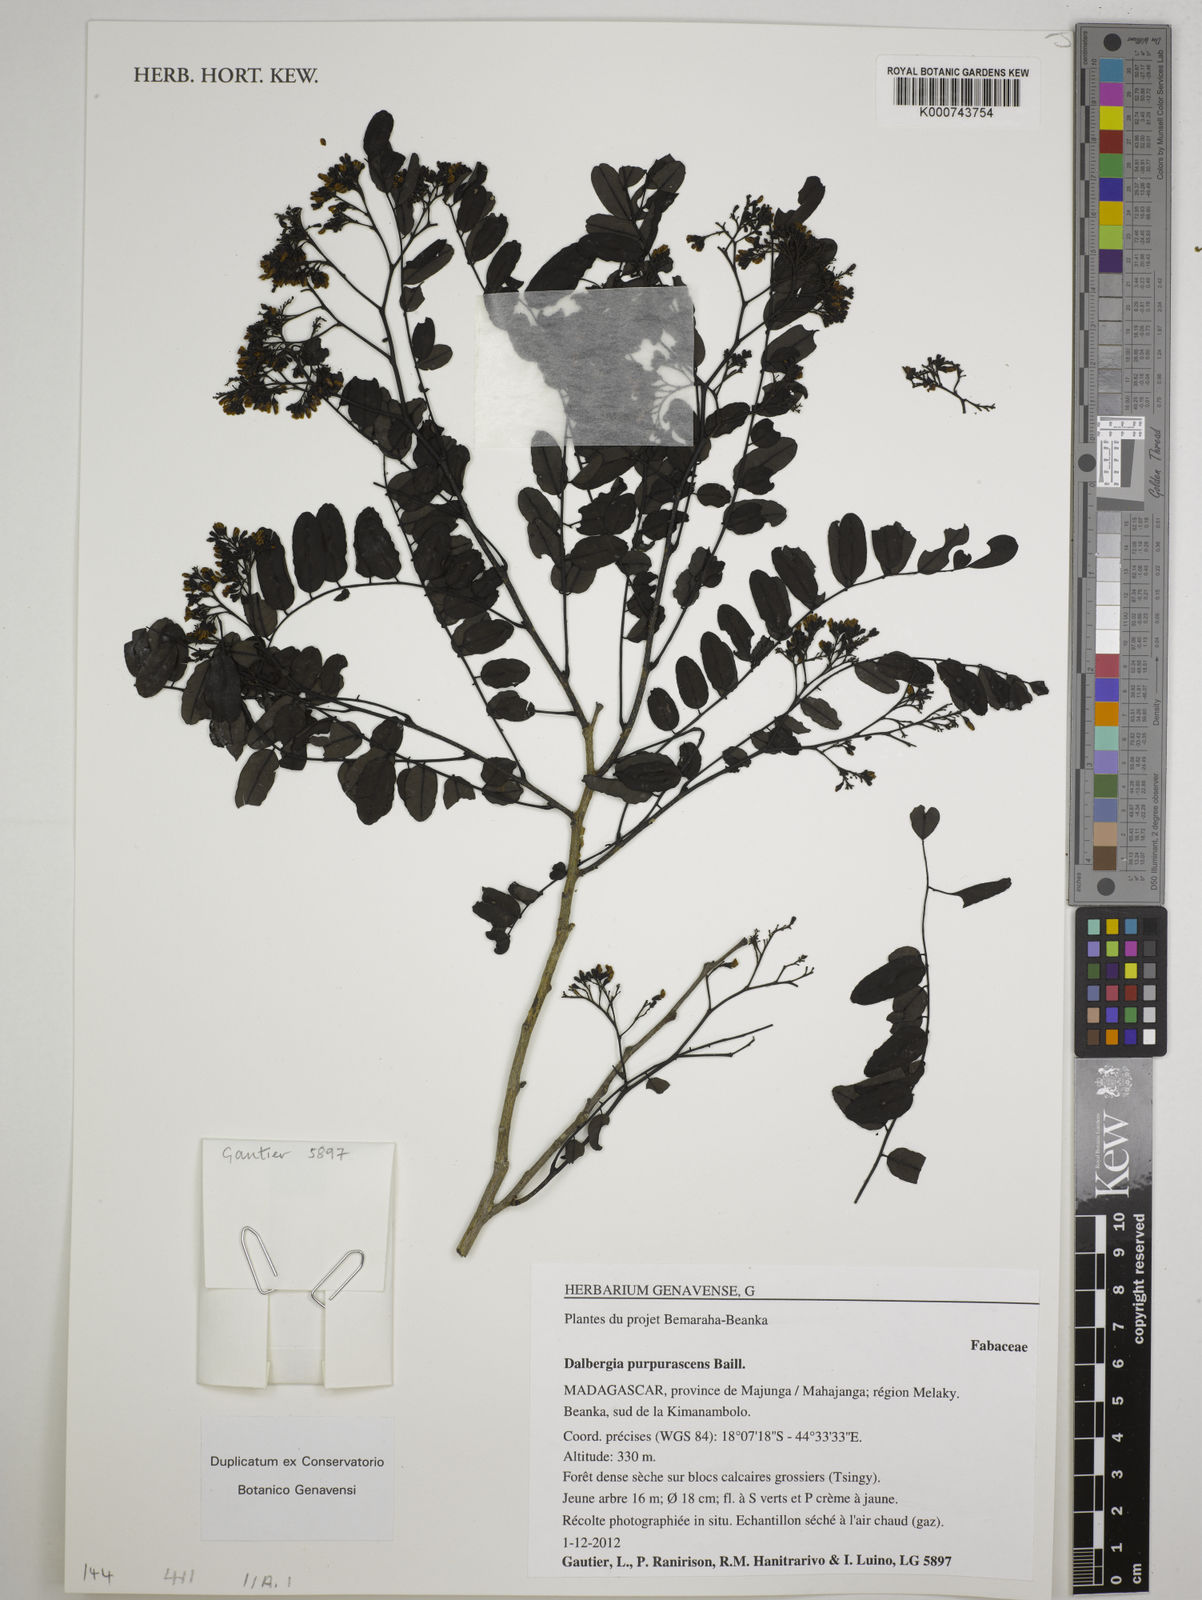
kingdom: Plantae
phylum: Tracheophyta
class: Magnoliopsida
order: Fabales
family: Fabaceae
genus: Dalbergia
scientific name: Dalbergia purpurascens
